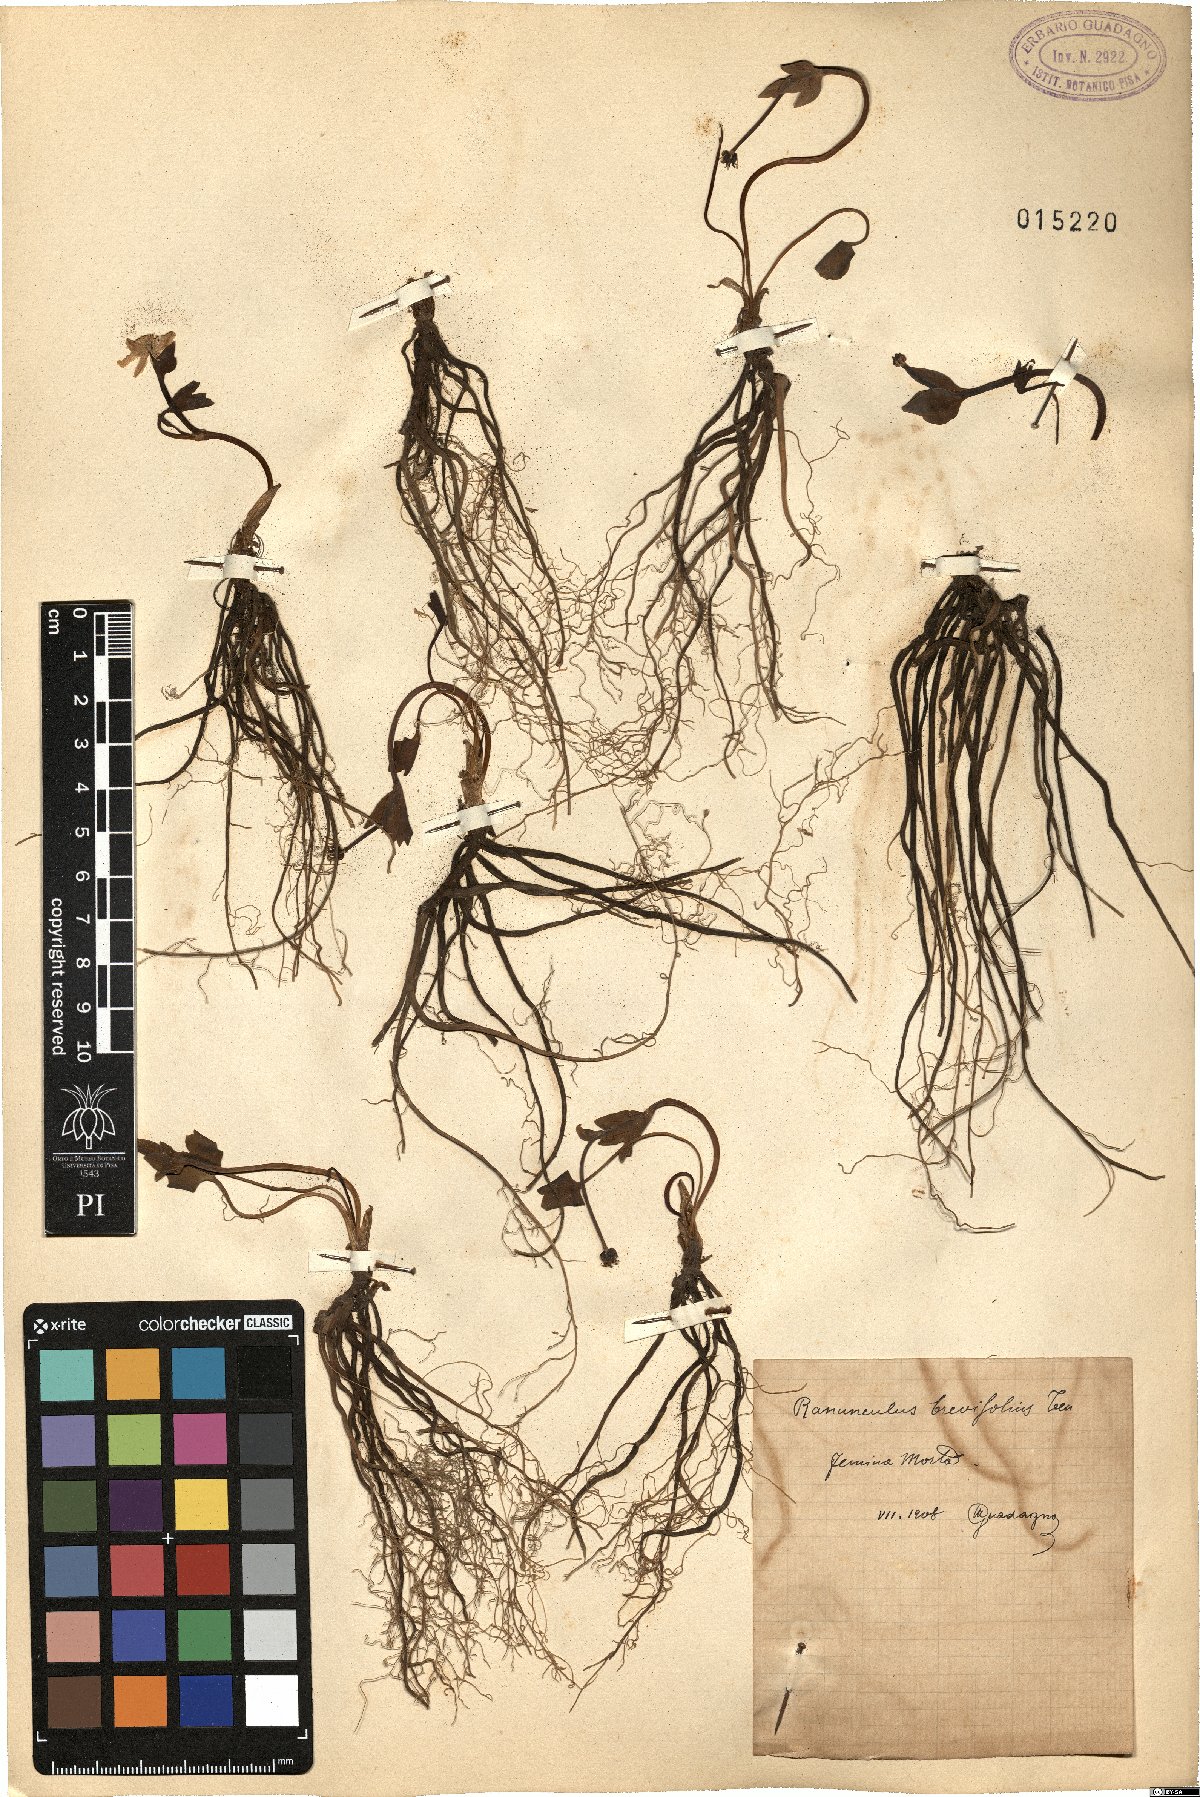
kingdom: Plantae
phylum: Tracheophyta
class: Magnoliopsida
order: Ranunculales
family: Ranunculaceae
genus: Ranunculus
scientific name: Ranunculus brevifolius
